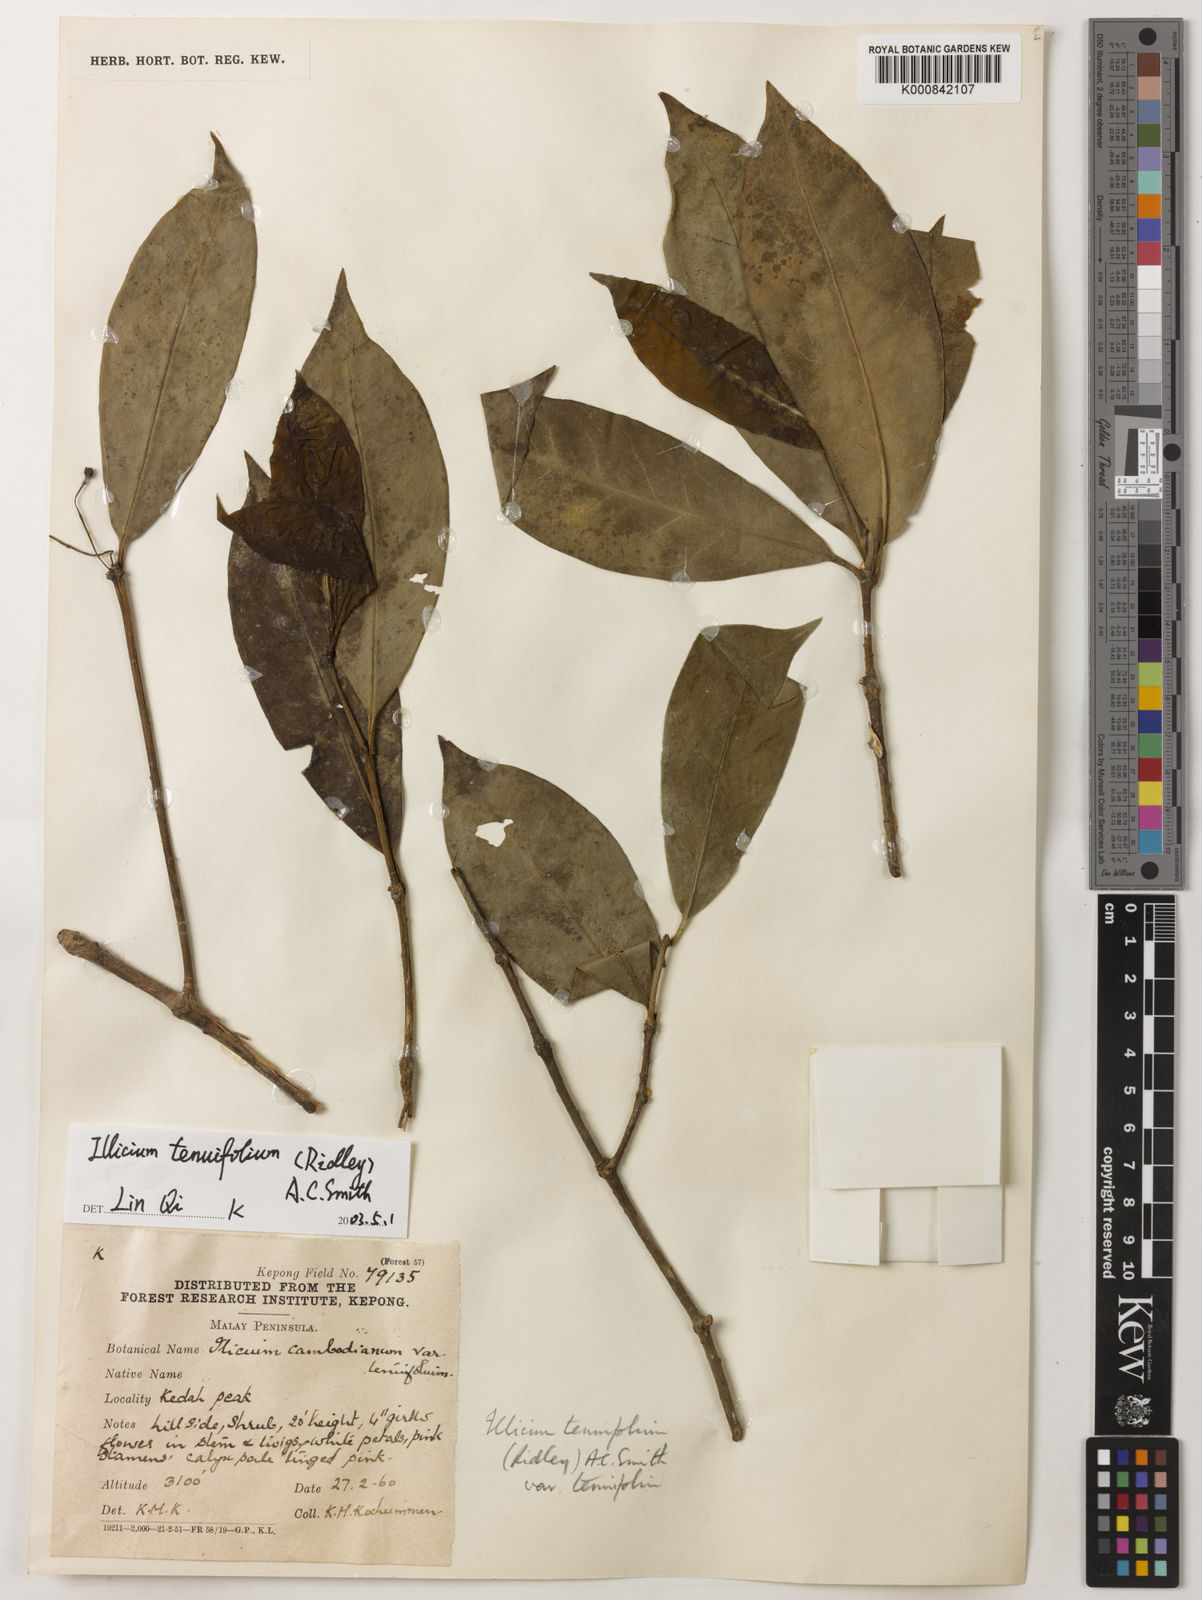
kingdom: Plantae
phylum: Tracheophyta
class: Magnoliopsida
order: Austrobaileyales
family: Schisandraceae
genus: Illicium
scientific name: Illicium tenuifolium
